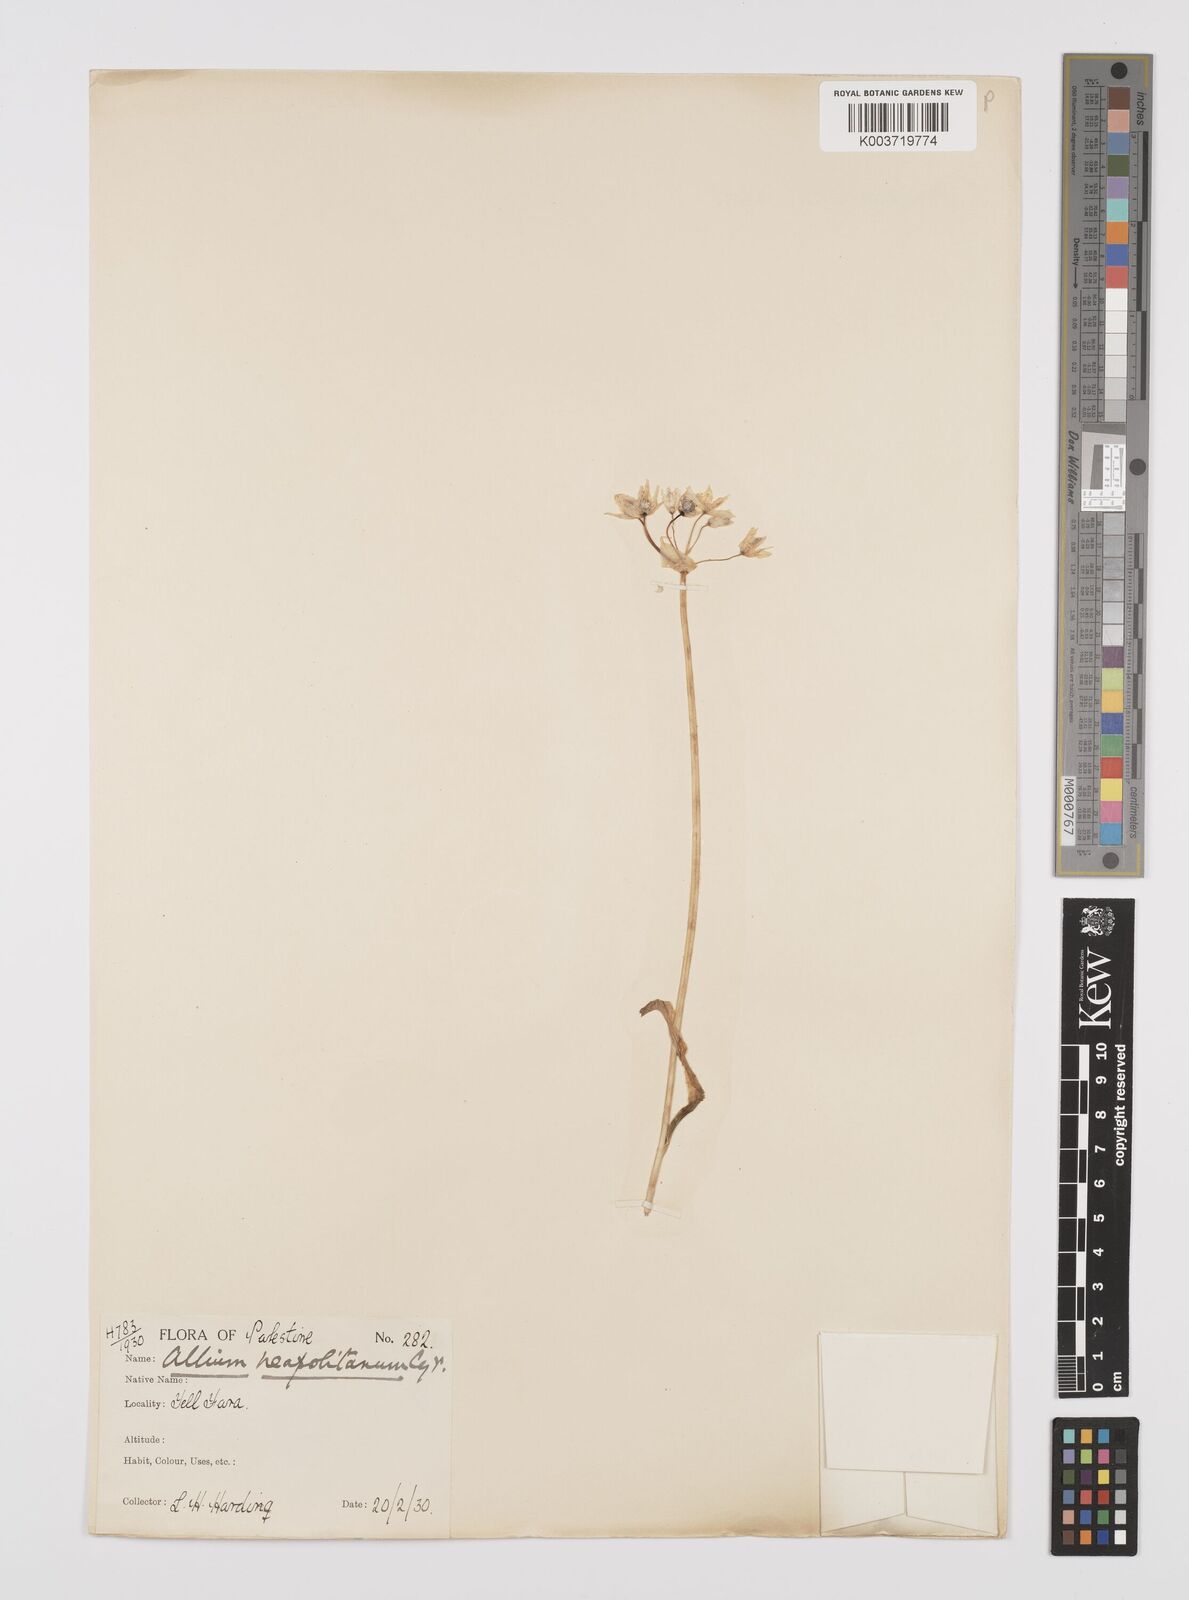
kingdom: Plantae
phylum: Tracheophyta
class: Liliopsida
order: Asparagales
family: Amaryllidaceae
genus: Allium
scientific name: Allium neapolitanum
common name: Neapolitan garlic
